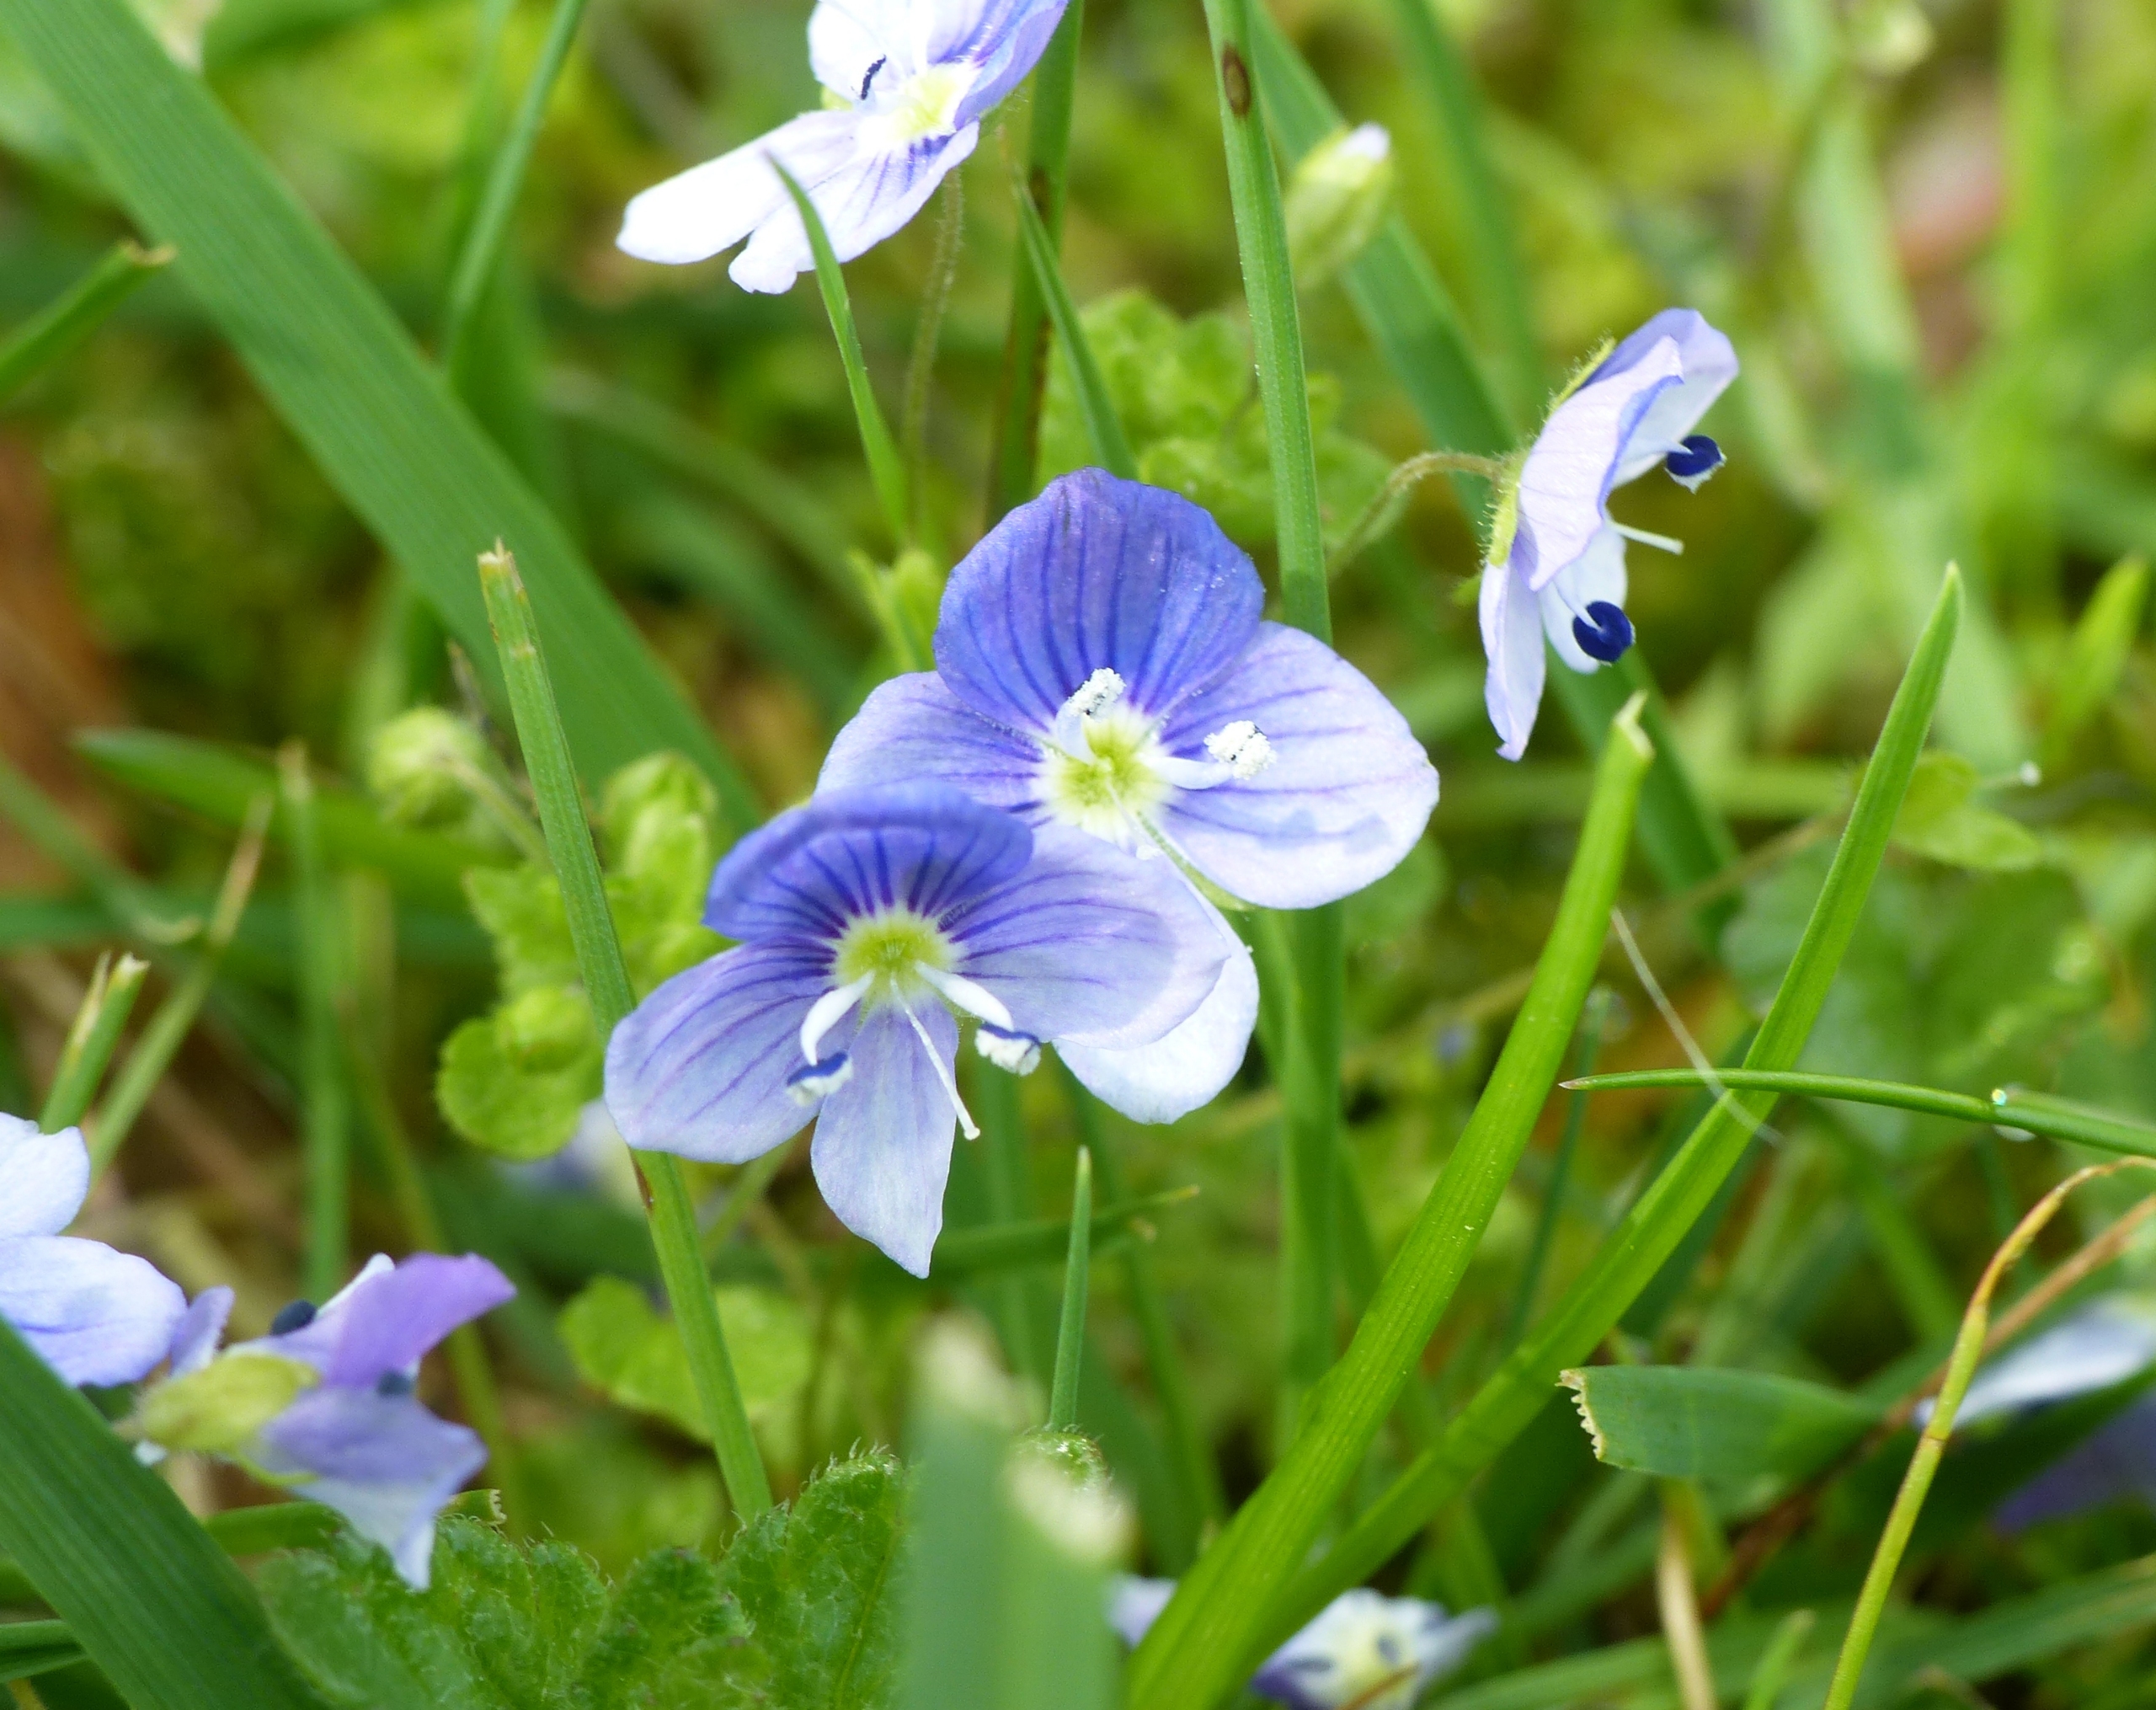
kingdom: Plantae
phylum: Tracheophyta
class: Magnoliopsida
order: Lamiales
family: Plantaginaceae
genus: Veronica
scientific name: Veronica filiformis
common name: Tråd-ærenpris
